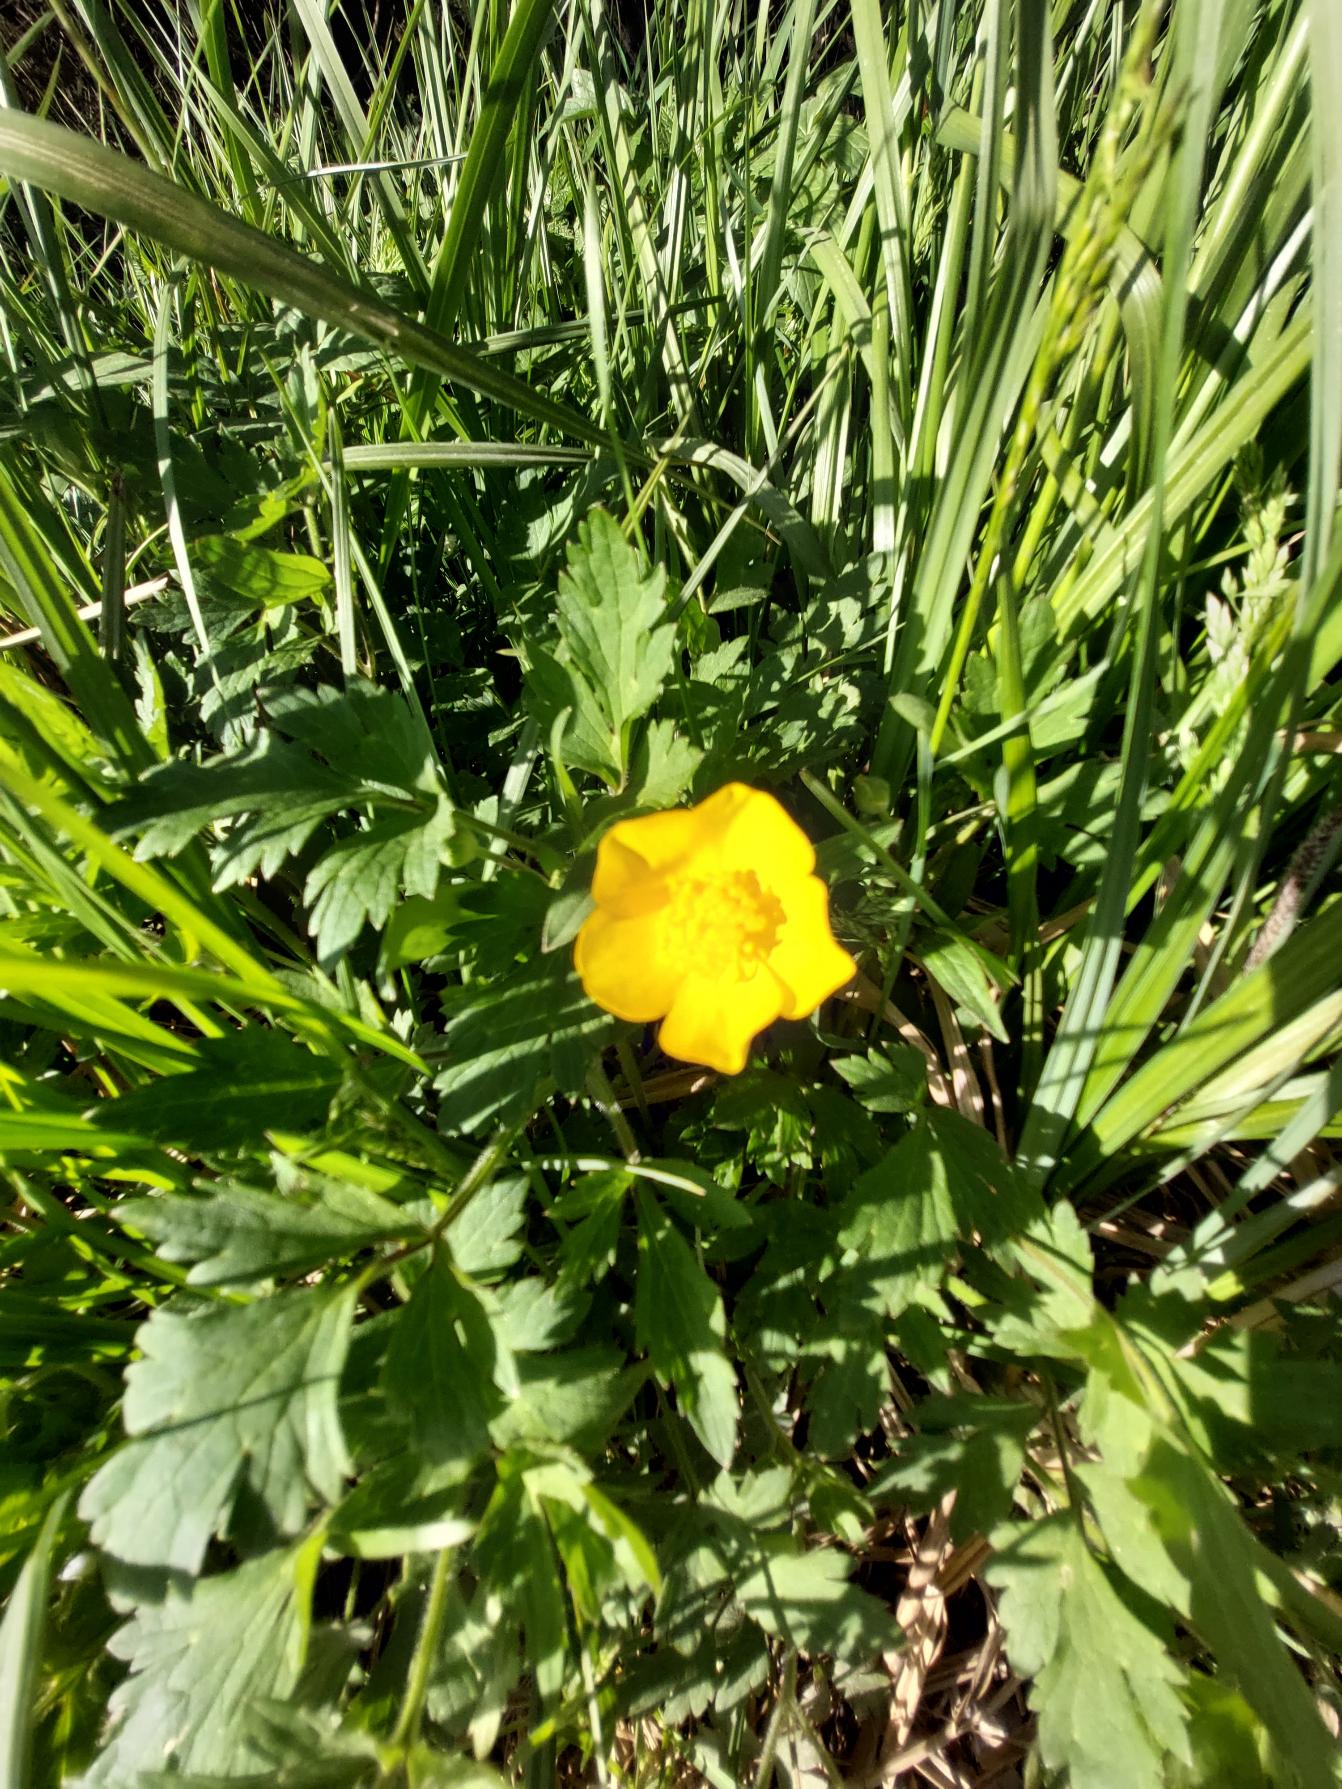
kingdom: Plantae
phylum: Tracheophyta
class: Magnoliopsida
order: Ranunculales
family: Ranunculaceae
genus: Ranunculus
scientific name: Ranunculus repens
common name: Lav ranunkel
